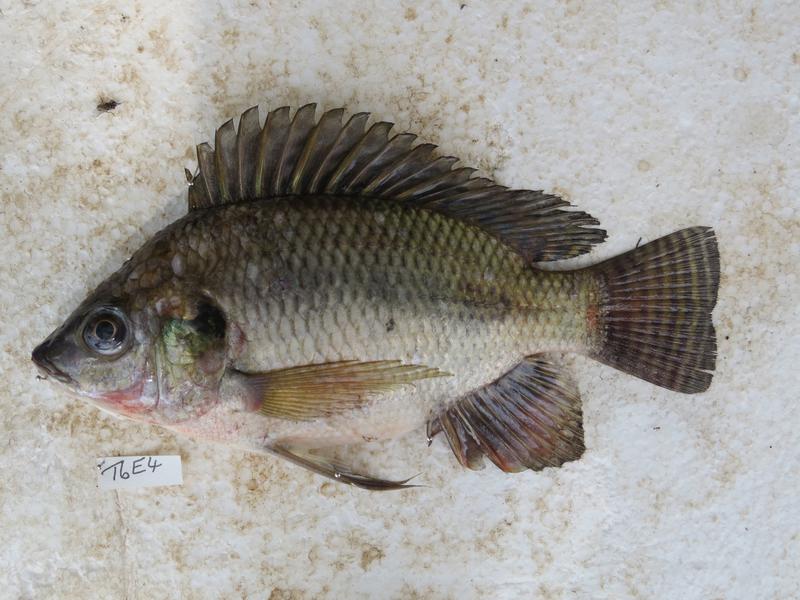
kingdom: Animalia
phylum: Chordata
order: Perciformes
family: Cichlidae
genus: Oreochromis
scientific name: Oreochromis niloticus
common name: Nile tilapia
